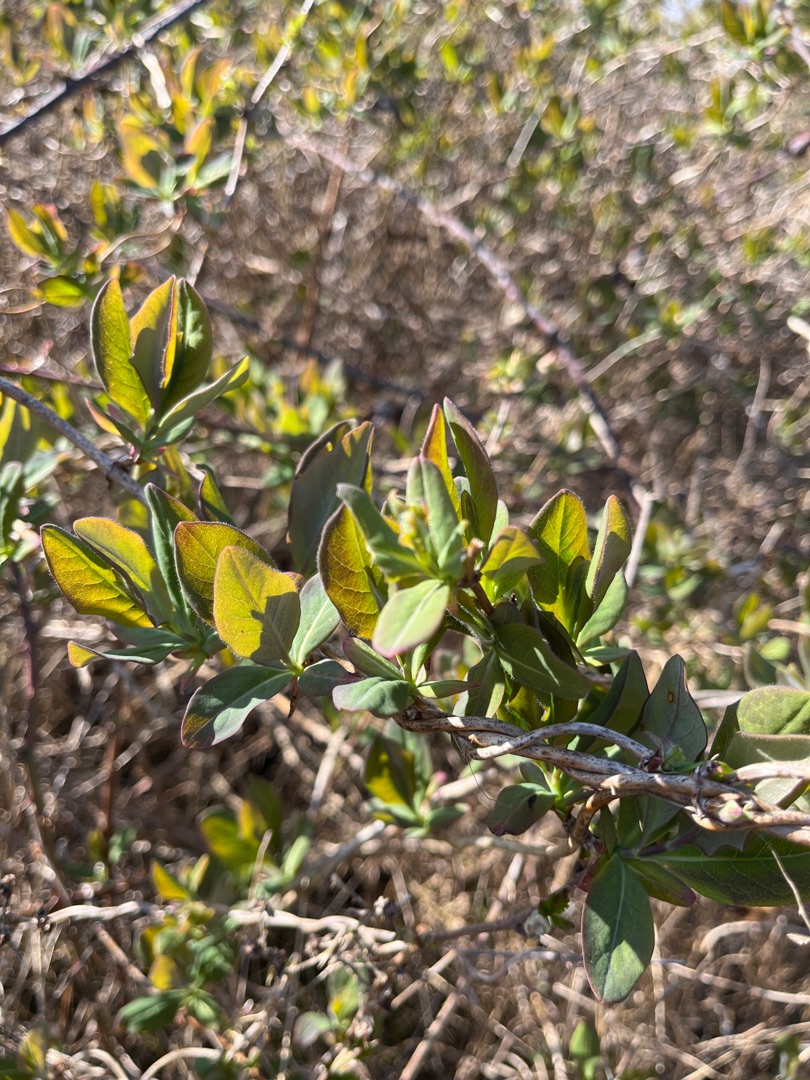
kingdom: Plantae
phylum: Tracheophyta
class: Magnoliopsida
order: Dipsacales
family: Caprifoliaceae
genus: Lonicera
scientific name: Lonicera periclymenum
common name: Almindelig gedeblad
